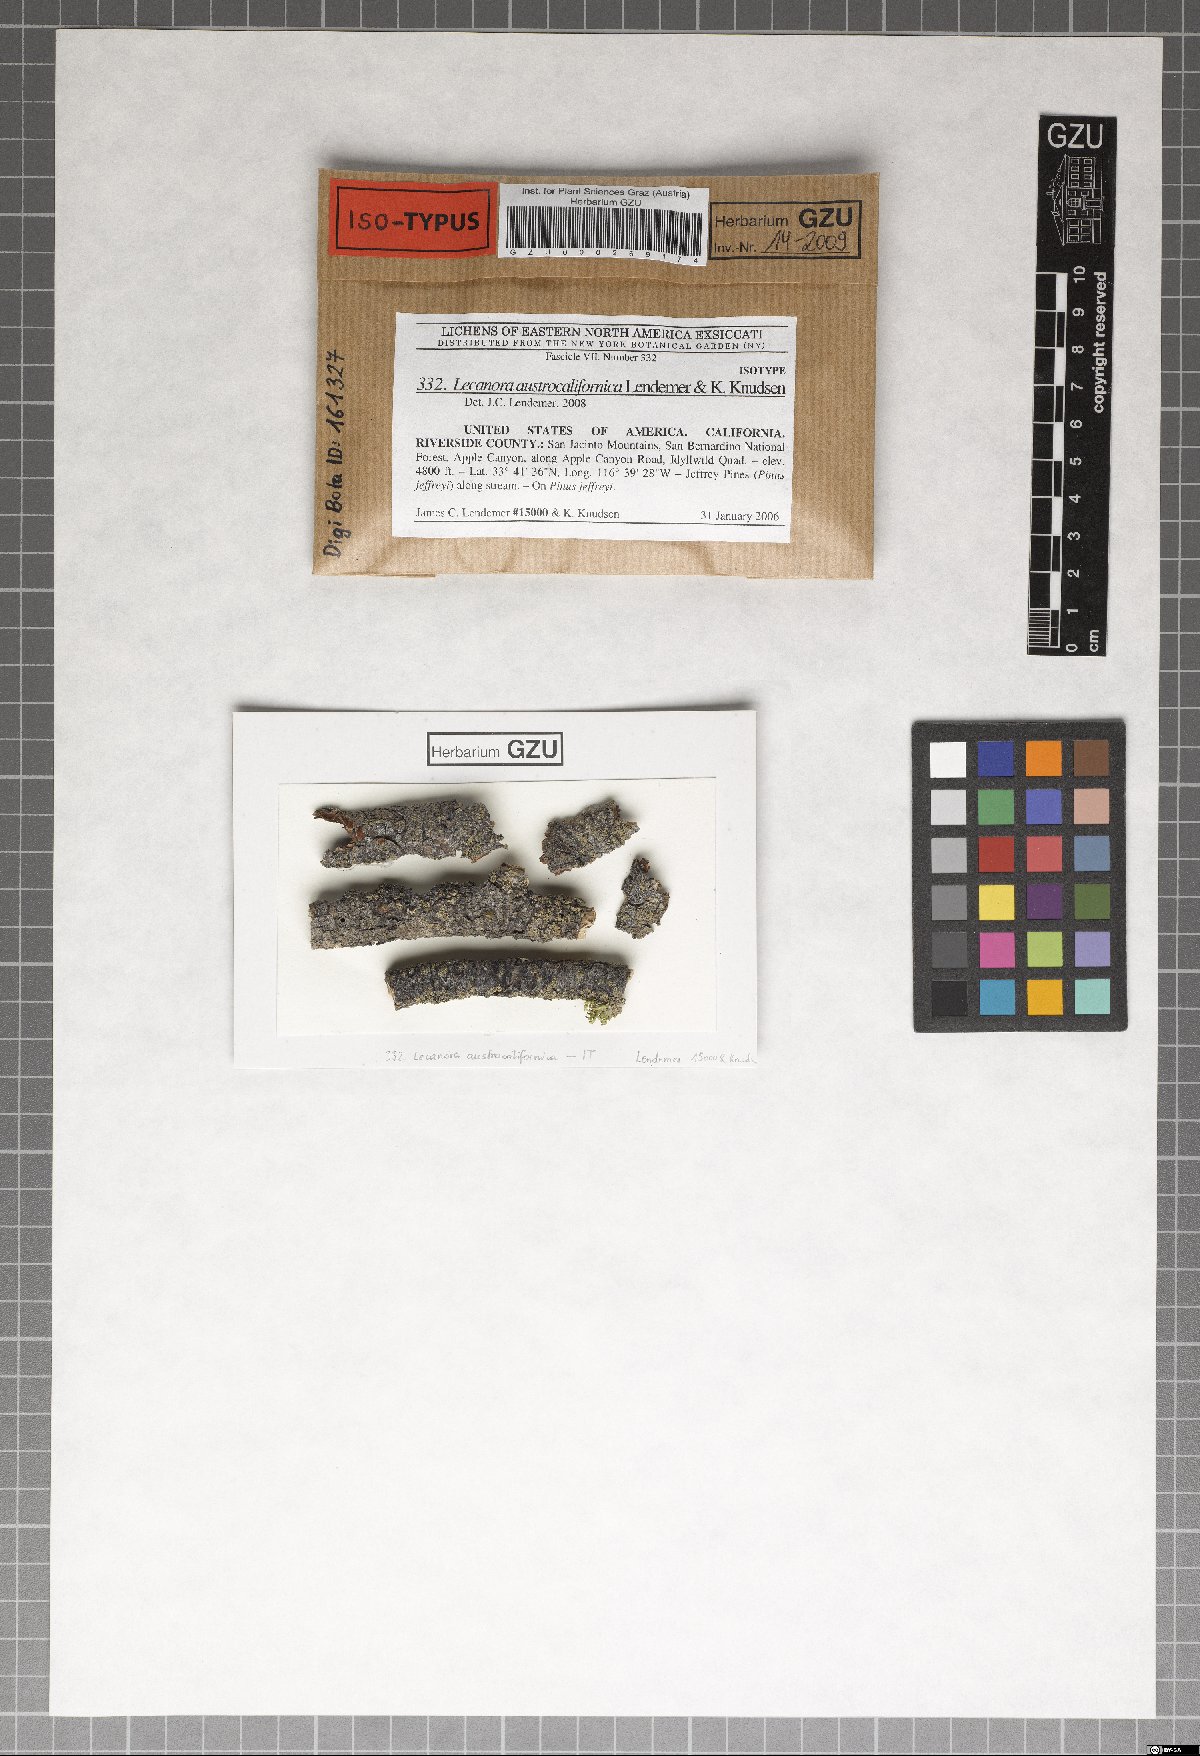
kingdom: Fungi
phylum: Ascomycota
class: Lecanoromycetes
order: Lecanorales
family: Lecanoraceae
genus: Lecanora
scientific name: Lecanora austrocalifornica
